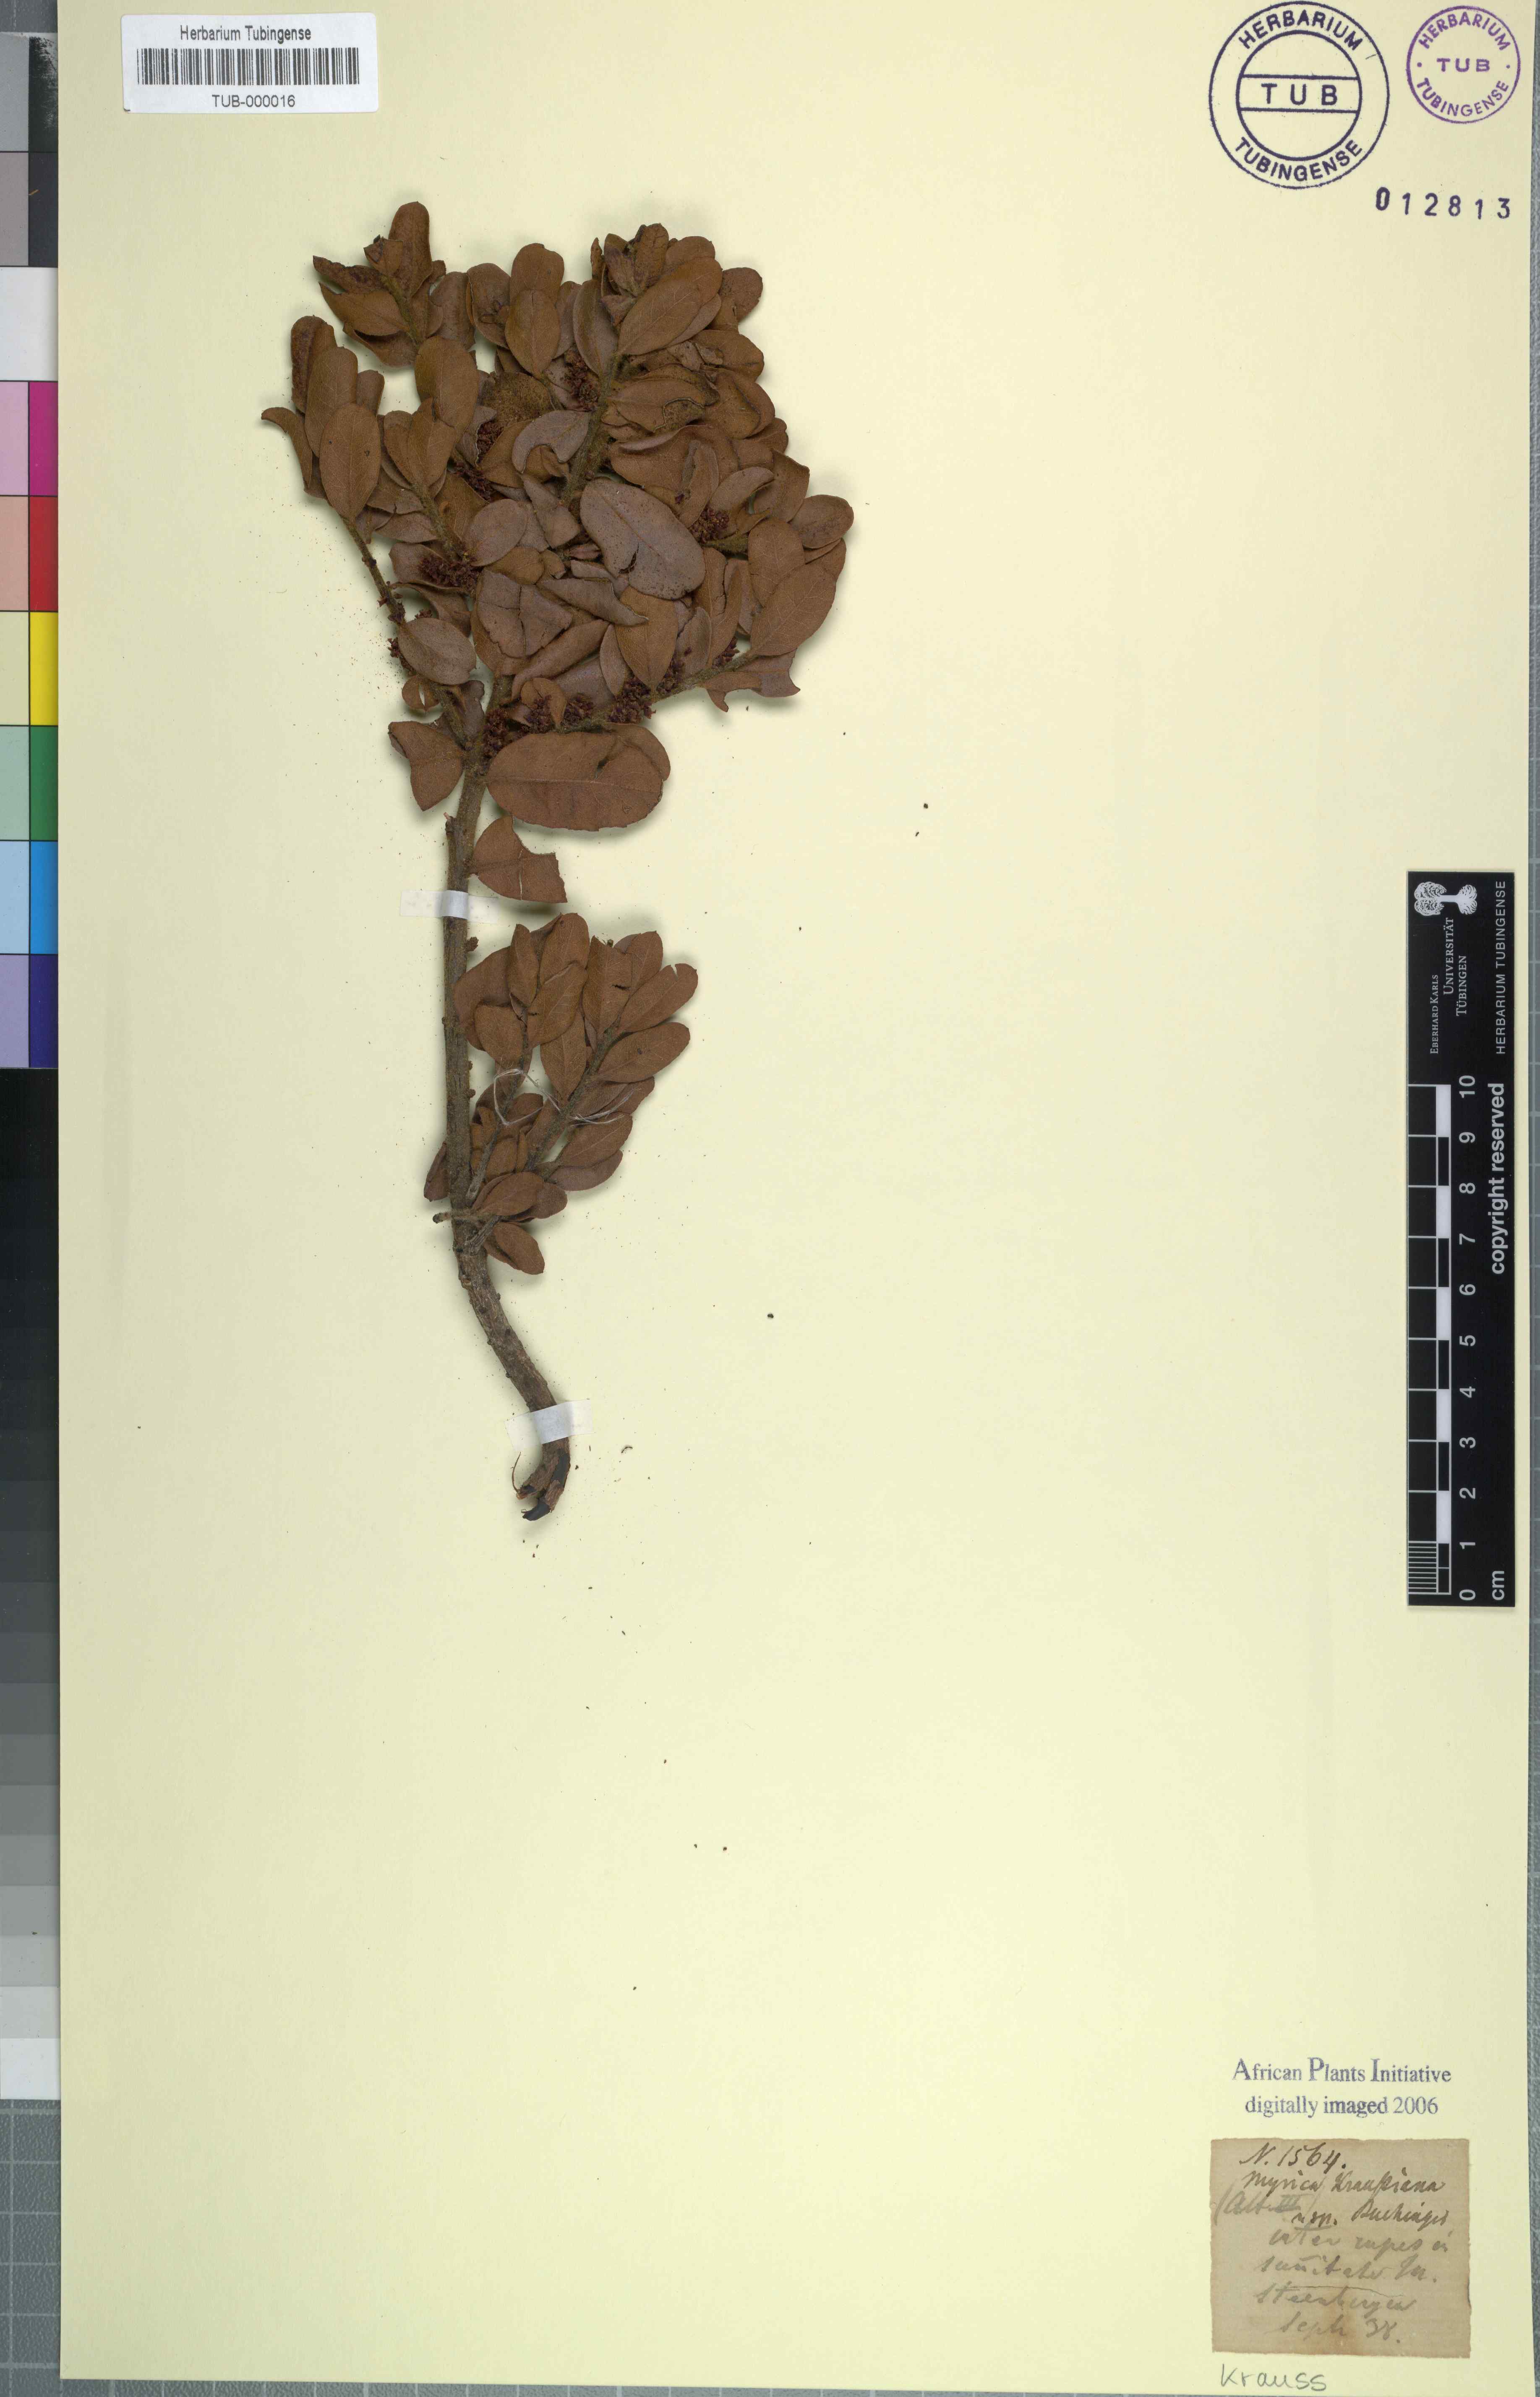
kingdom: Plantae
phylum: Tracheophyta
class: Magnoliopsida
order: Fagales
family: Myricaceae
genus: Morella
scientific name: Morella kraussiana
